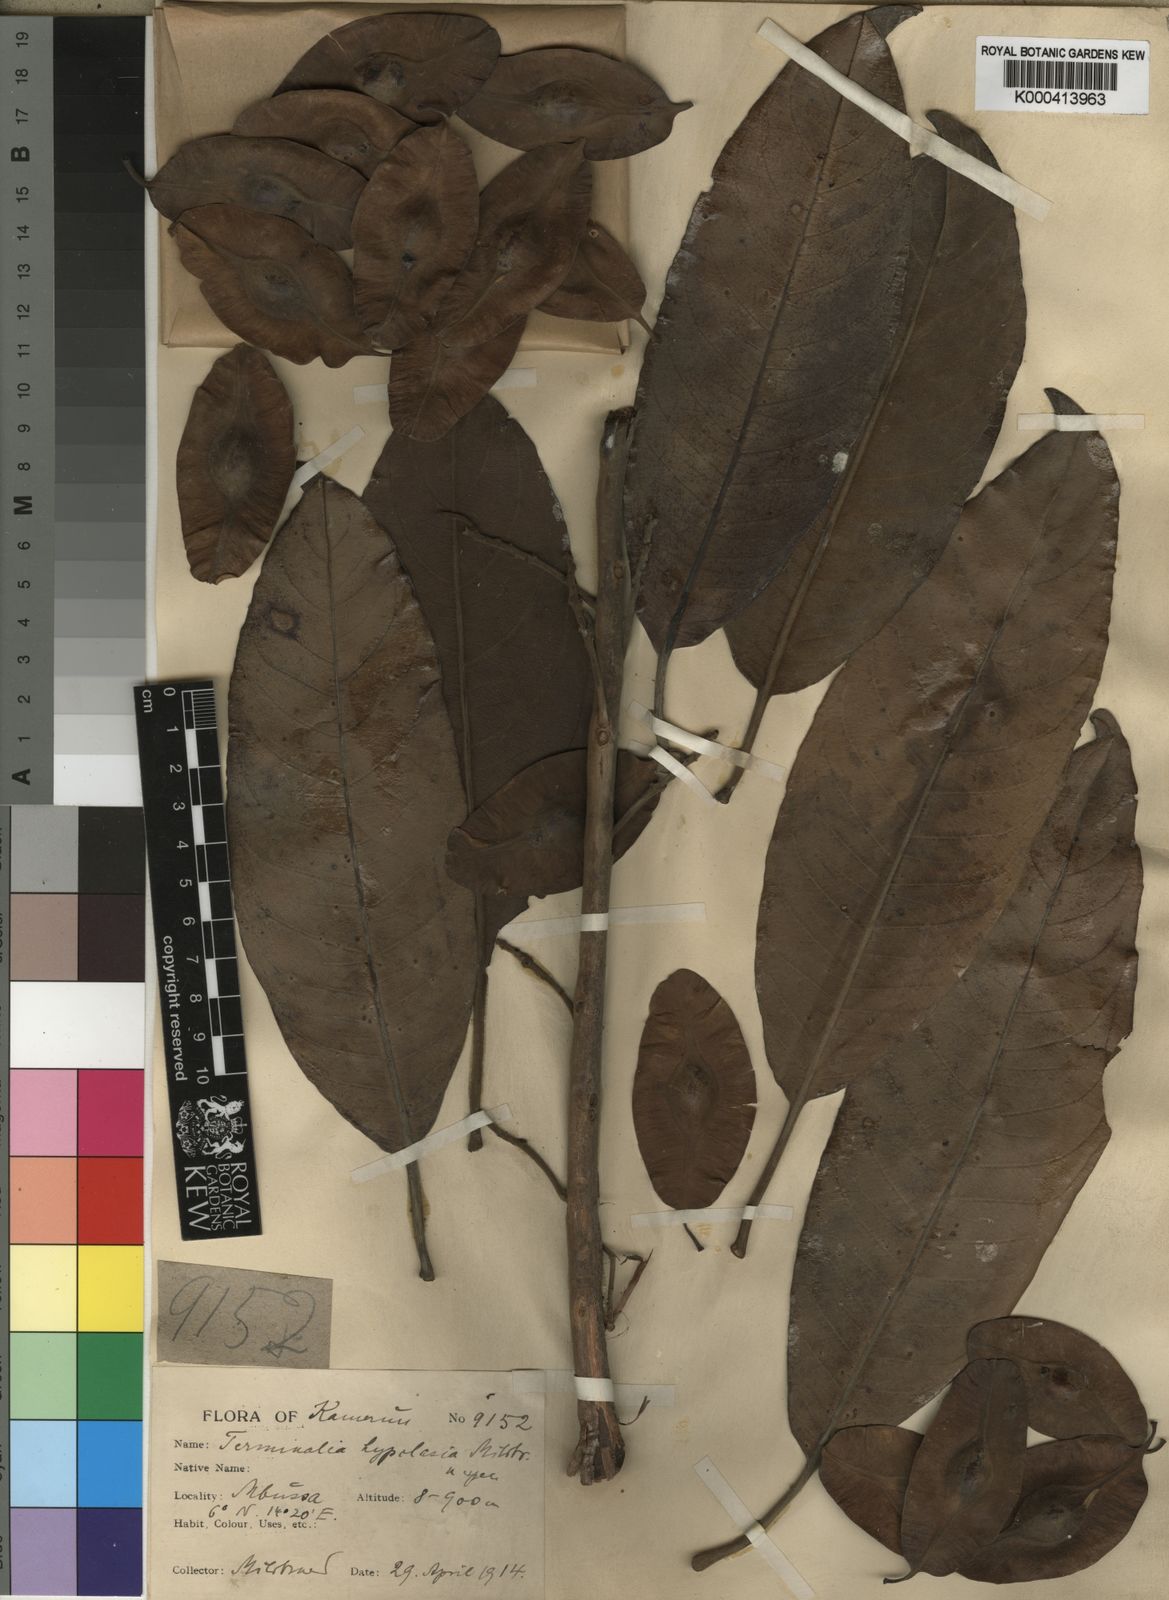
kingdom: Plantae
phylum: Tracheophyta
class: Magnoliopsida
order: Myrtales
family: Combretaceae
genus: Terminalia
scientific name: Terminalia
